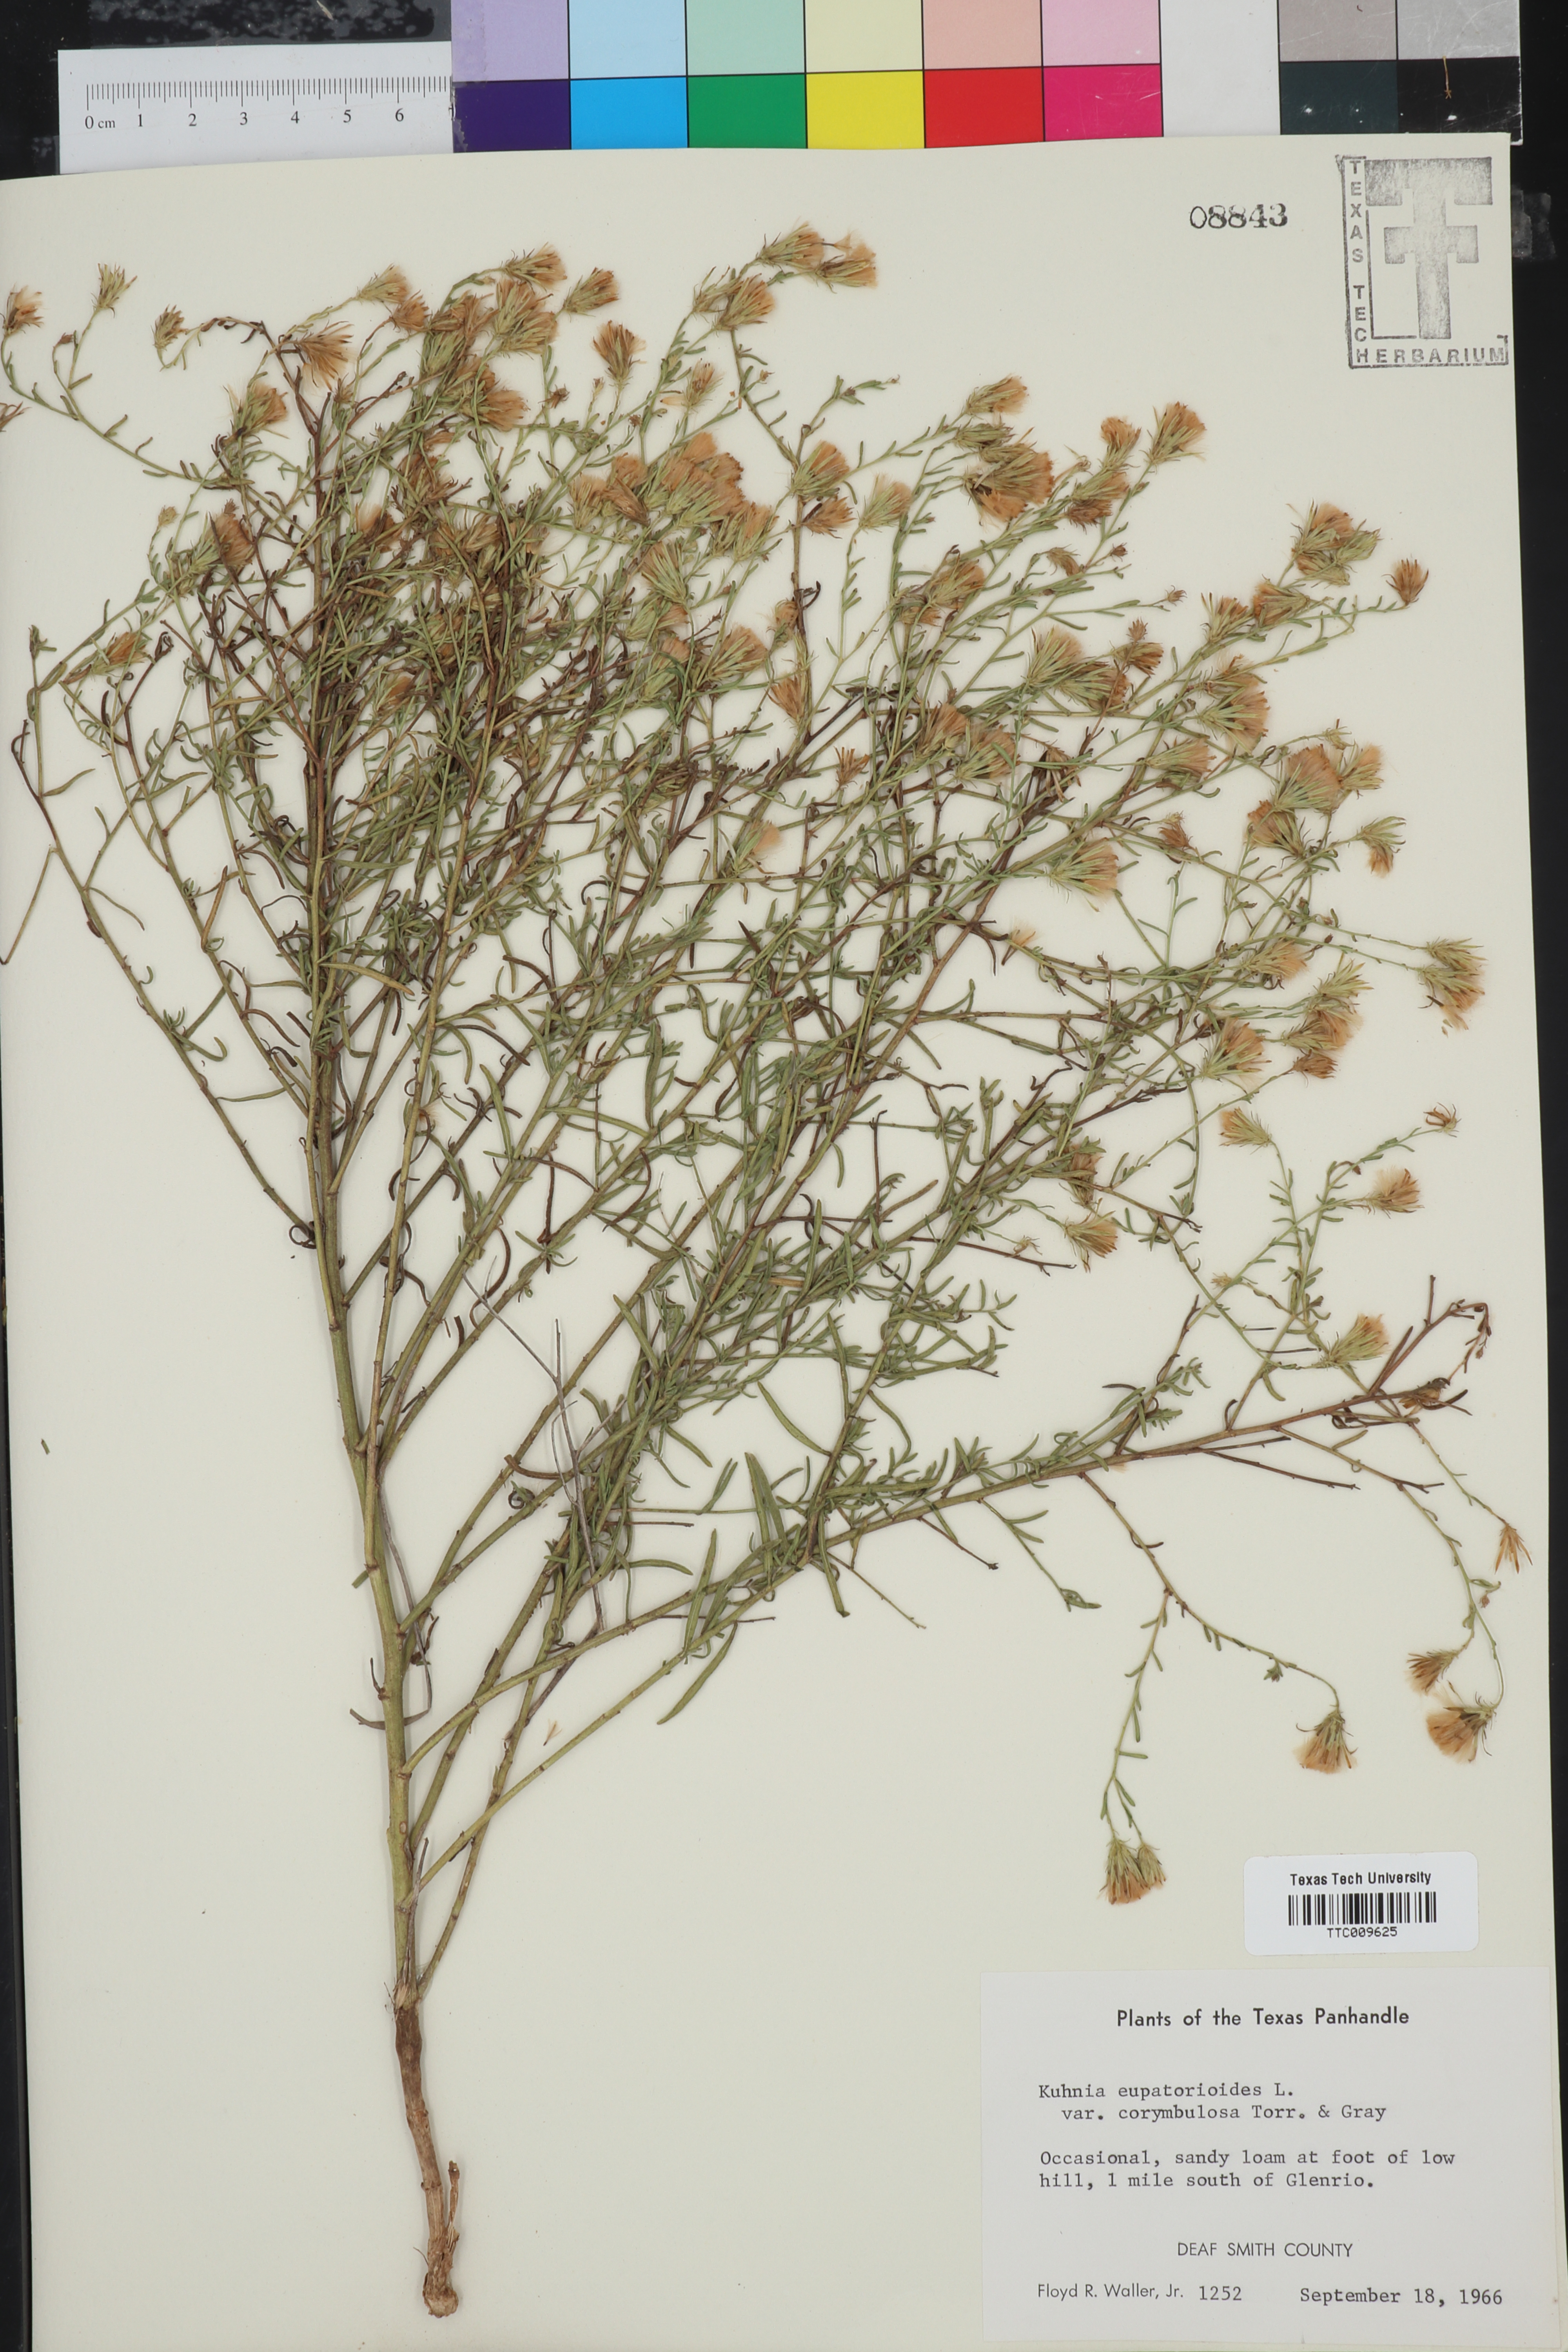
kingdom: Plantae
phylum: Tracheophyta
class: Magnoliopsida
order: Asterales
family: Asteraceae
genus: Brickellia
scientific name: Brickellia suaveolens
